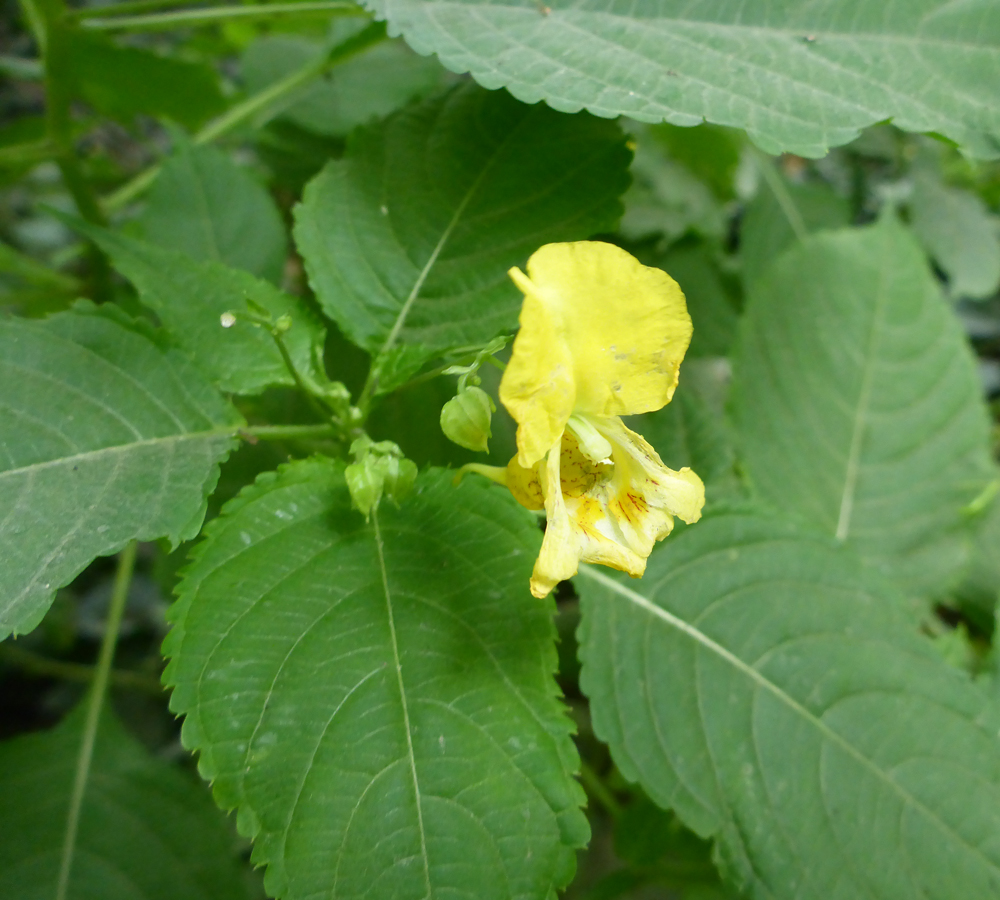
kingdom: Plantae
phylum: Tracheophyta
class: Magnoliopsida
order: Ericales
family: Balsaminaceae
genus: Impatiens
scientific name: Impatiens edgeworthii
